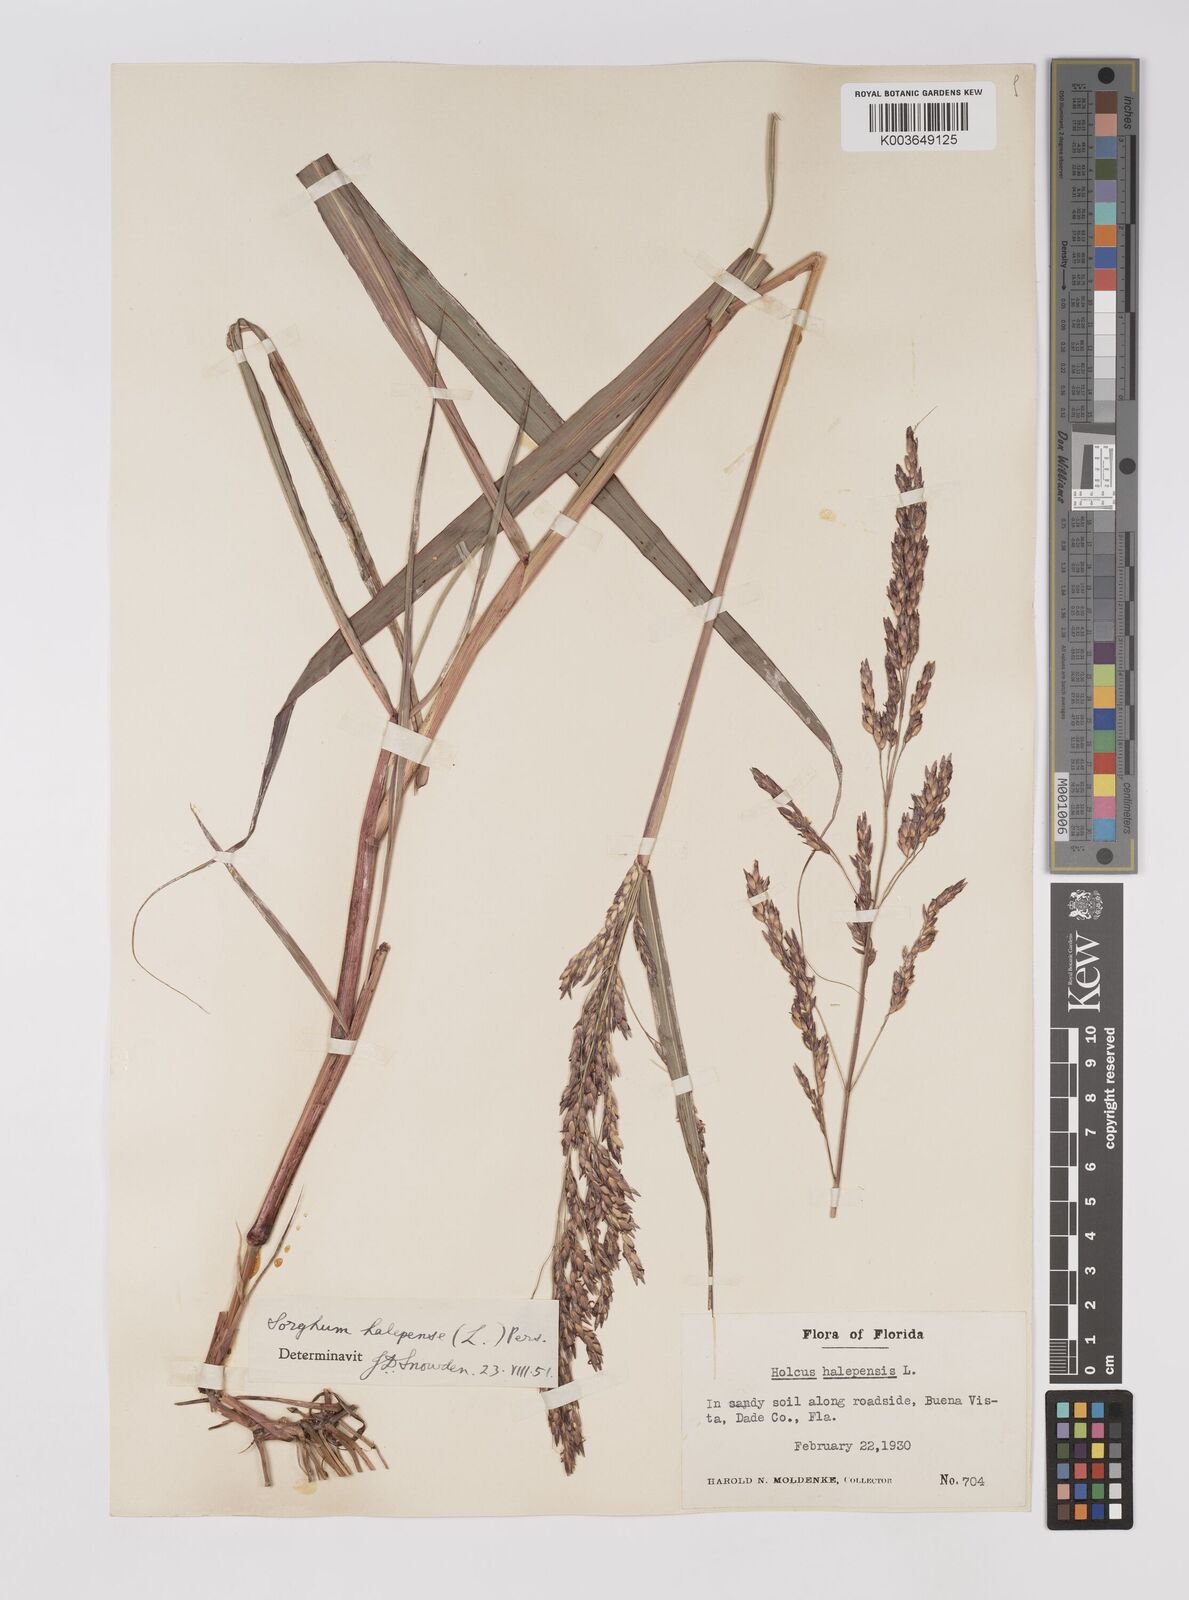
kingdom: Plantae
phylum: Tracheophyta
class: Liliopsida
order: Poales
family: Poaceae
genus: Sorghum
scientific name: Sorghum halepense
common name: Johnson-grass
